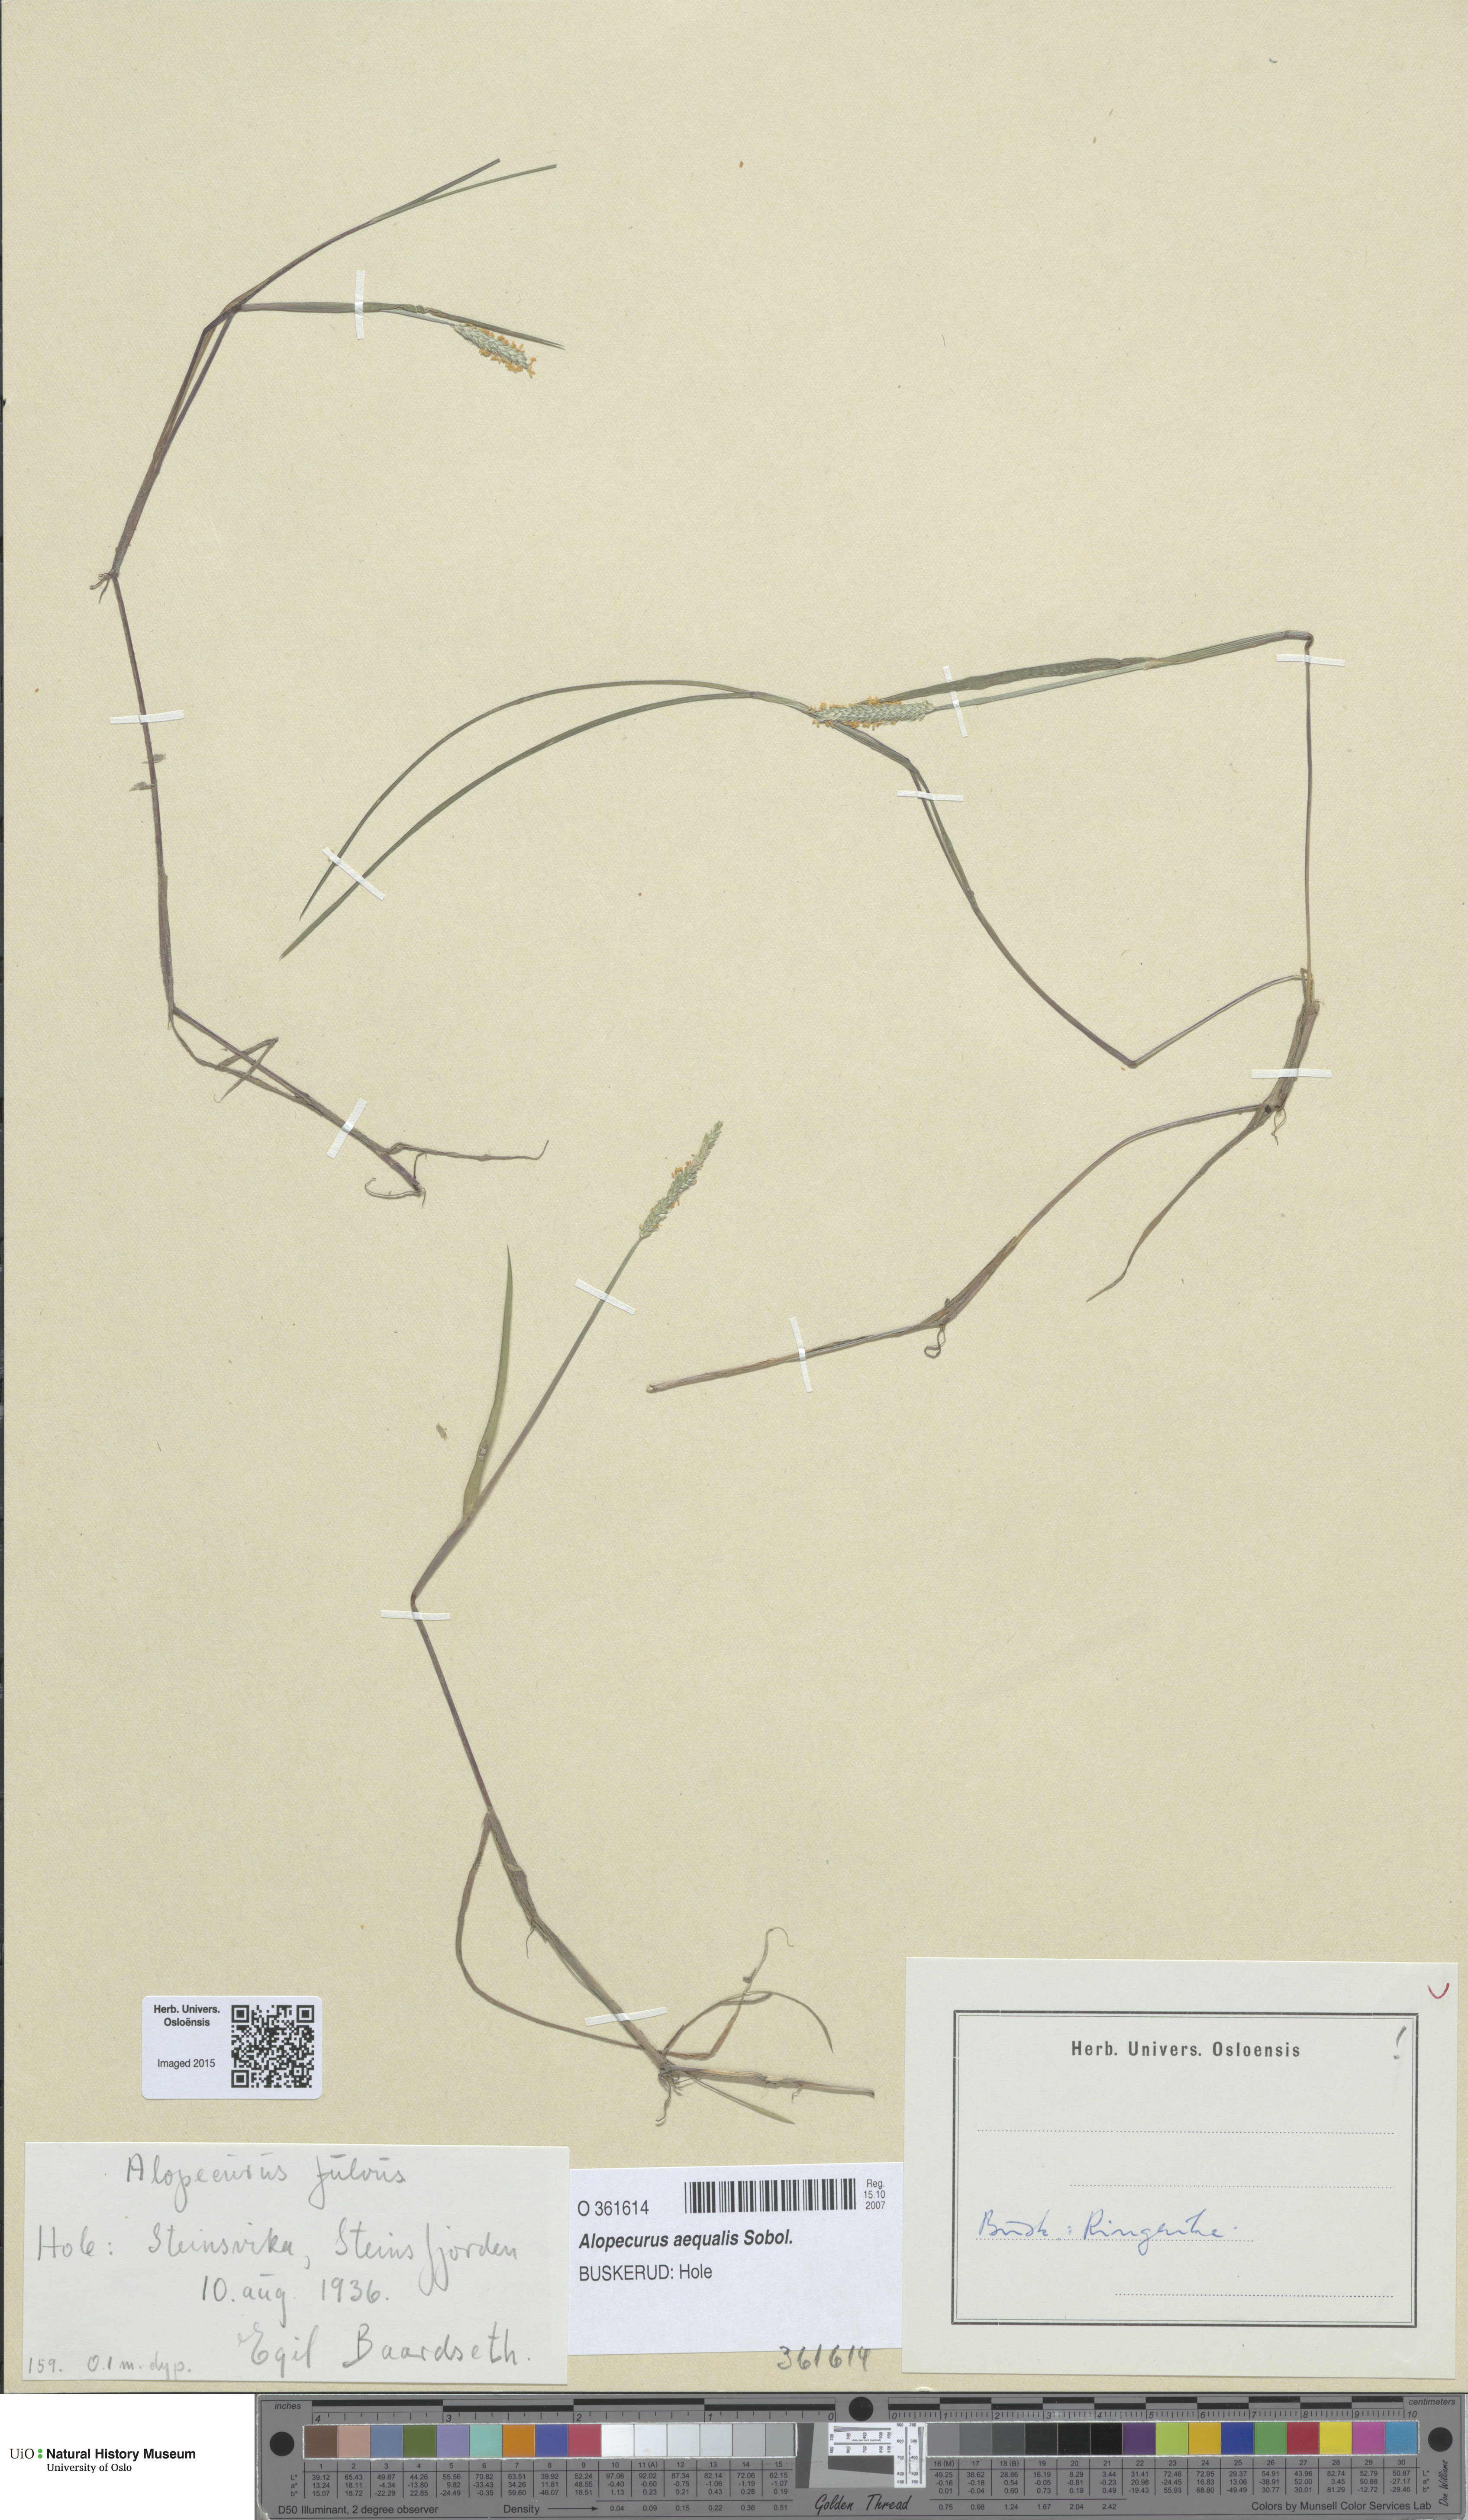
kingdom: Plantae
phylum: Tracheophyta
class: Liliopsida
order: Poales
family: Poaceae
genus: Alopecurus
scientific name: Alopecurus aequalis
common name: Orange foxtail
